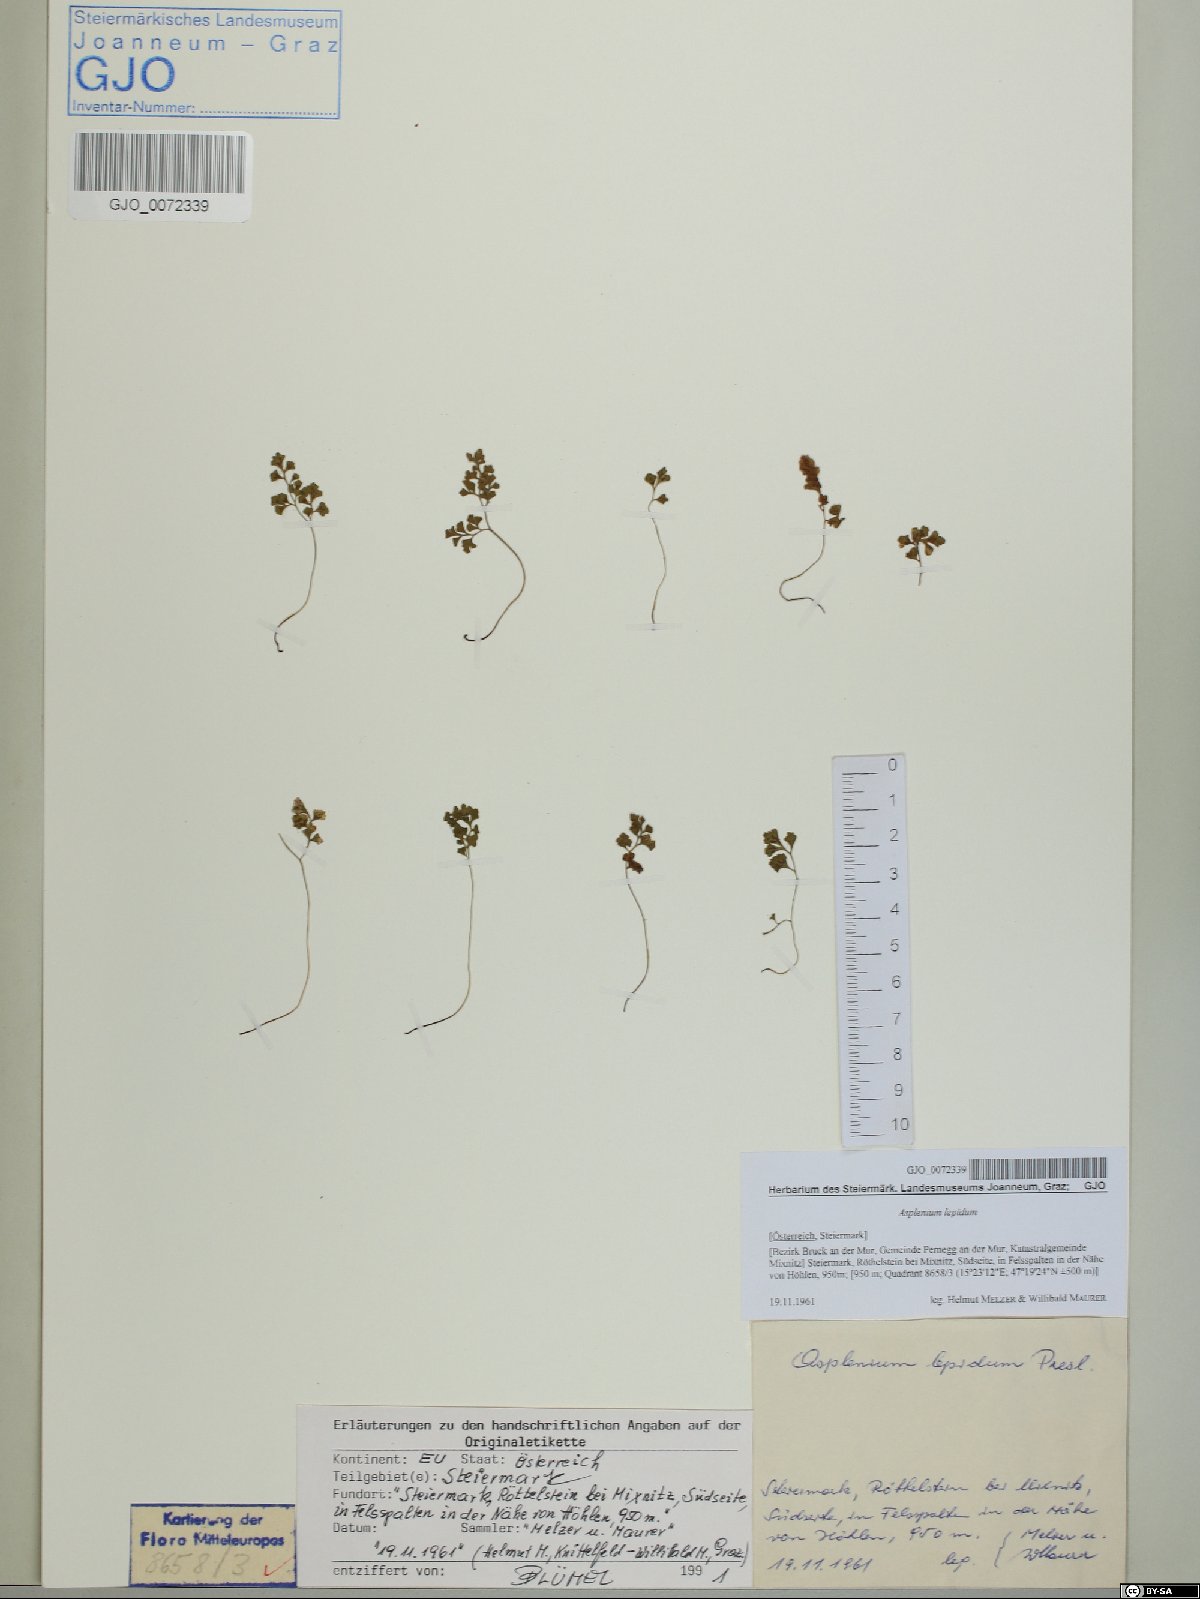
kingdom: Plantae
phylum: Tracheophyta
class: Polypodiopsida
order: Polypodiales
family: Aspleniaceae
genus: Asplenium
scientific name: Asplenium lepidum
